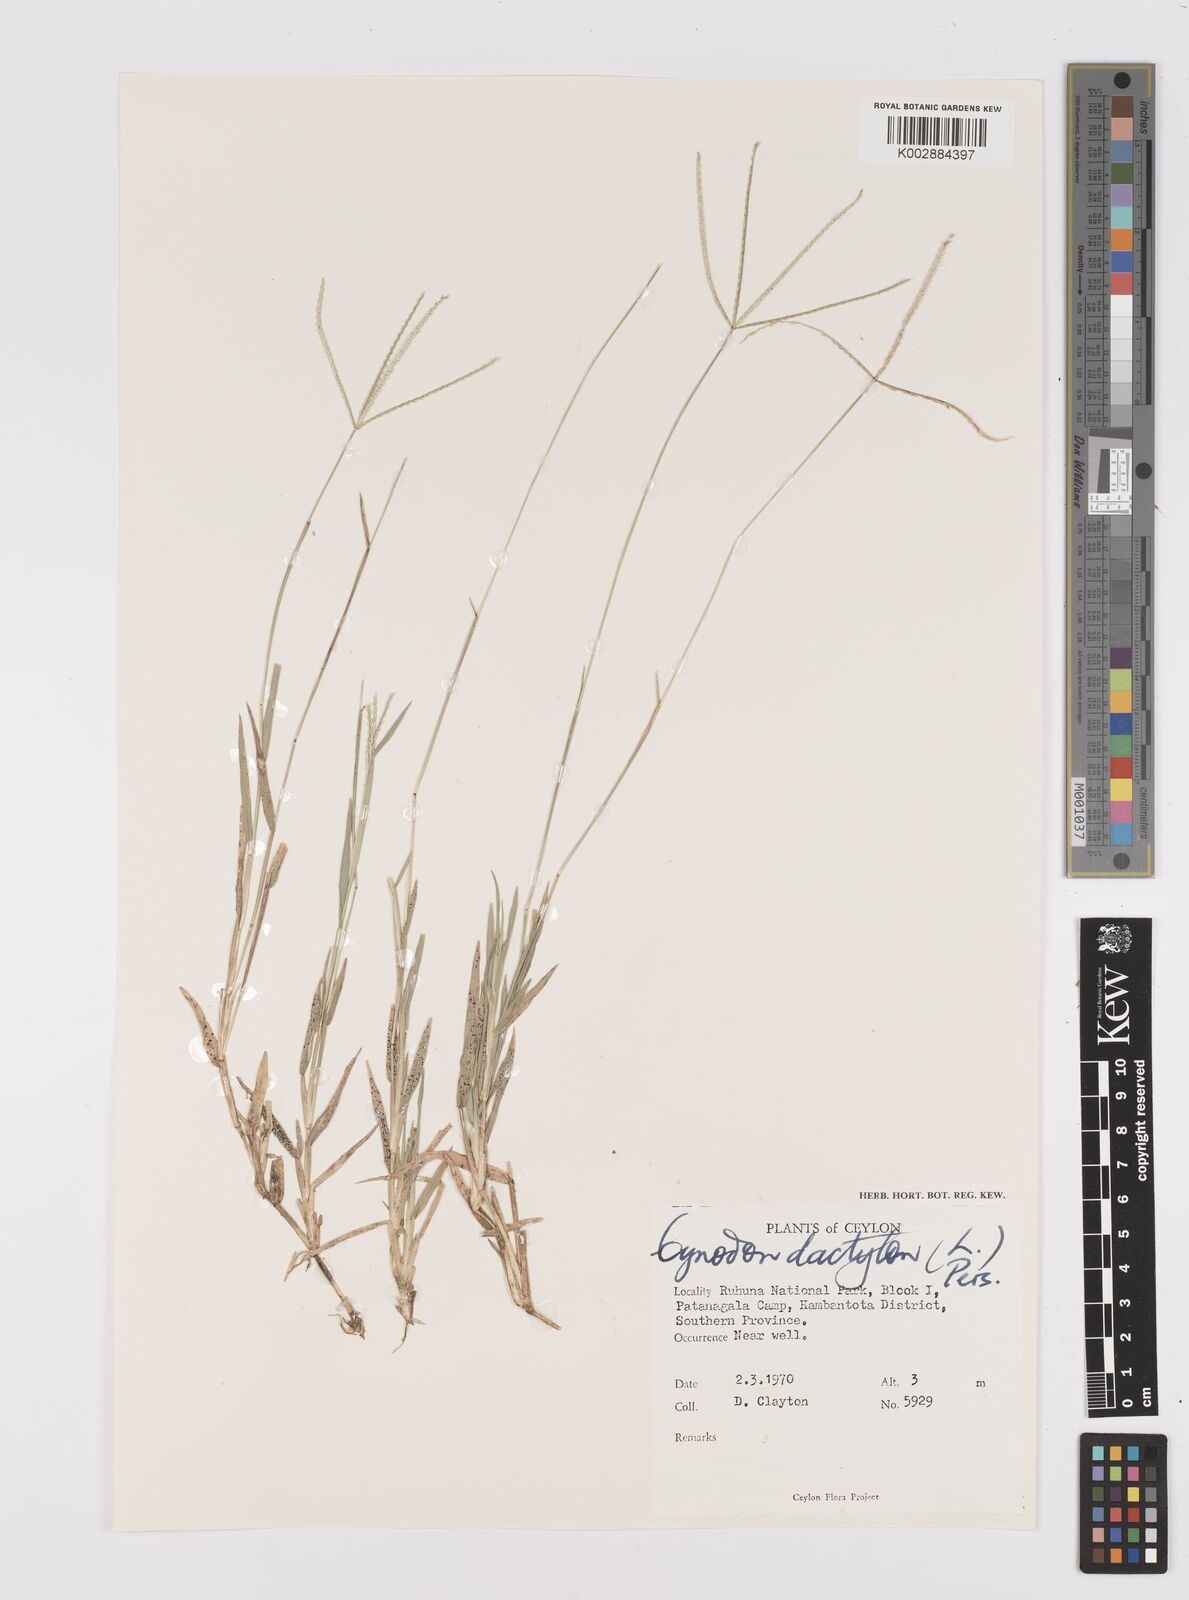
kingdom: Plantae
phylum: Tracheophyta
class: Liliopsida
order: Poales
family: Poaceae
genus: Cynodon
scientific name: Cynodon dactylon
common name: Bermuda grass
